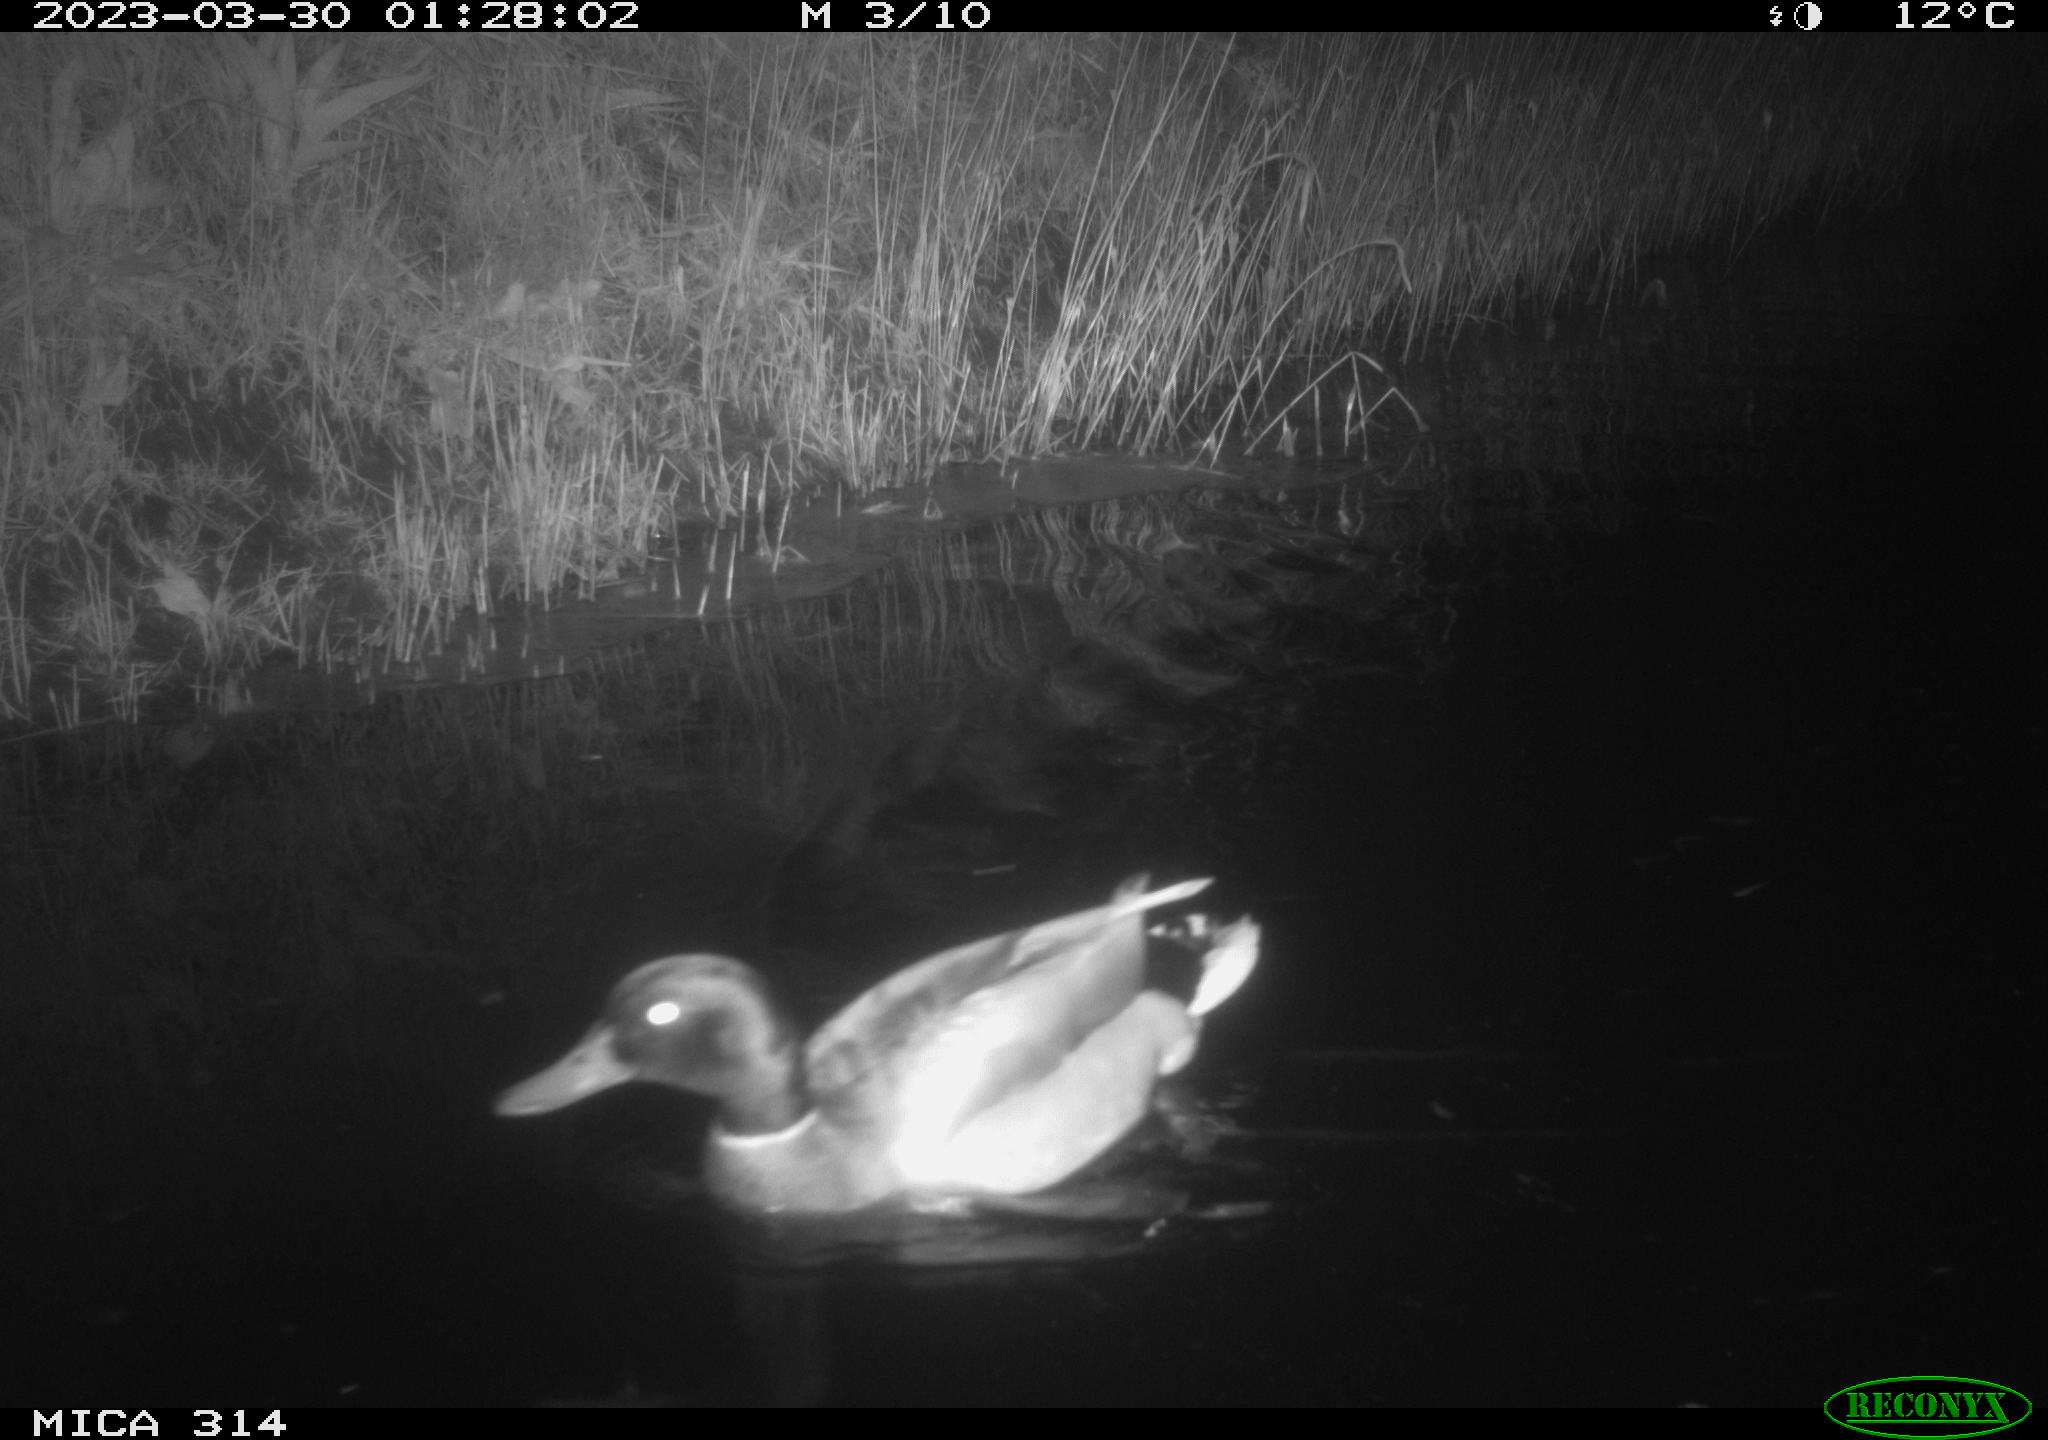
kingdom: Animalia
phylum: Chordata
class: Aves
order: Anseriformes
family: Anatidae
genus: Anas
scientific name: Anas
